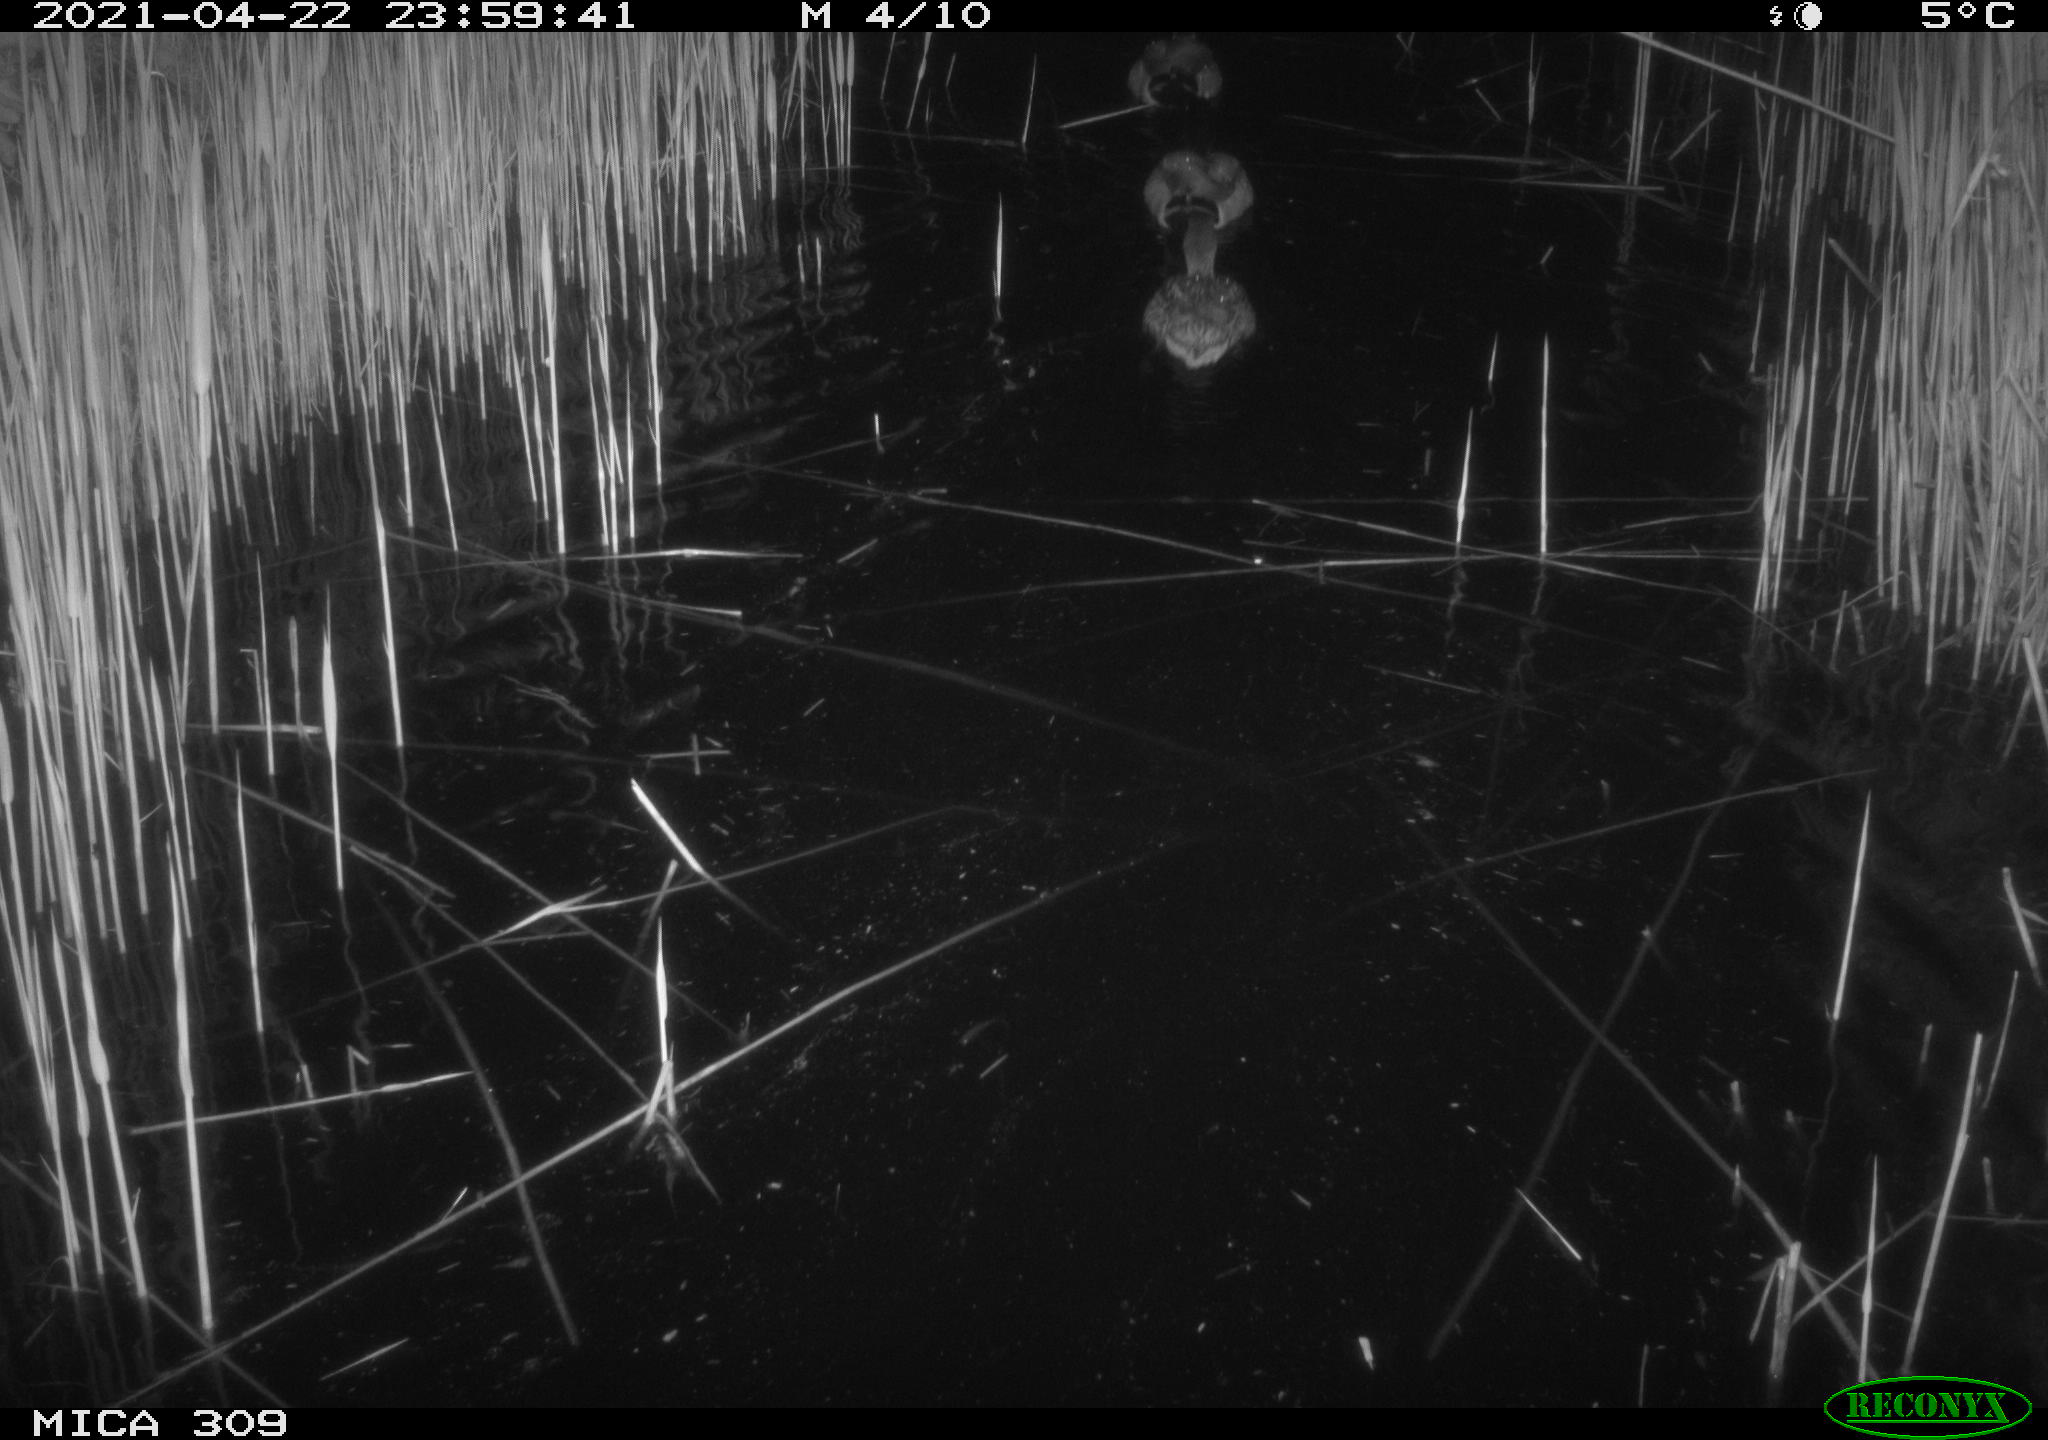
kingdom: Animalia
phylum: Chordata
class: Aves
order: Anseriformes
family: Anatidae
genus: Anas
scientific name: Anas platyrhynchos
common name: Mallard
